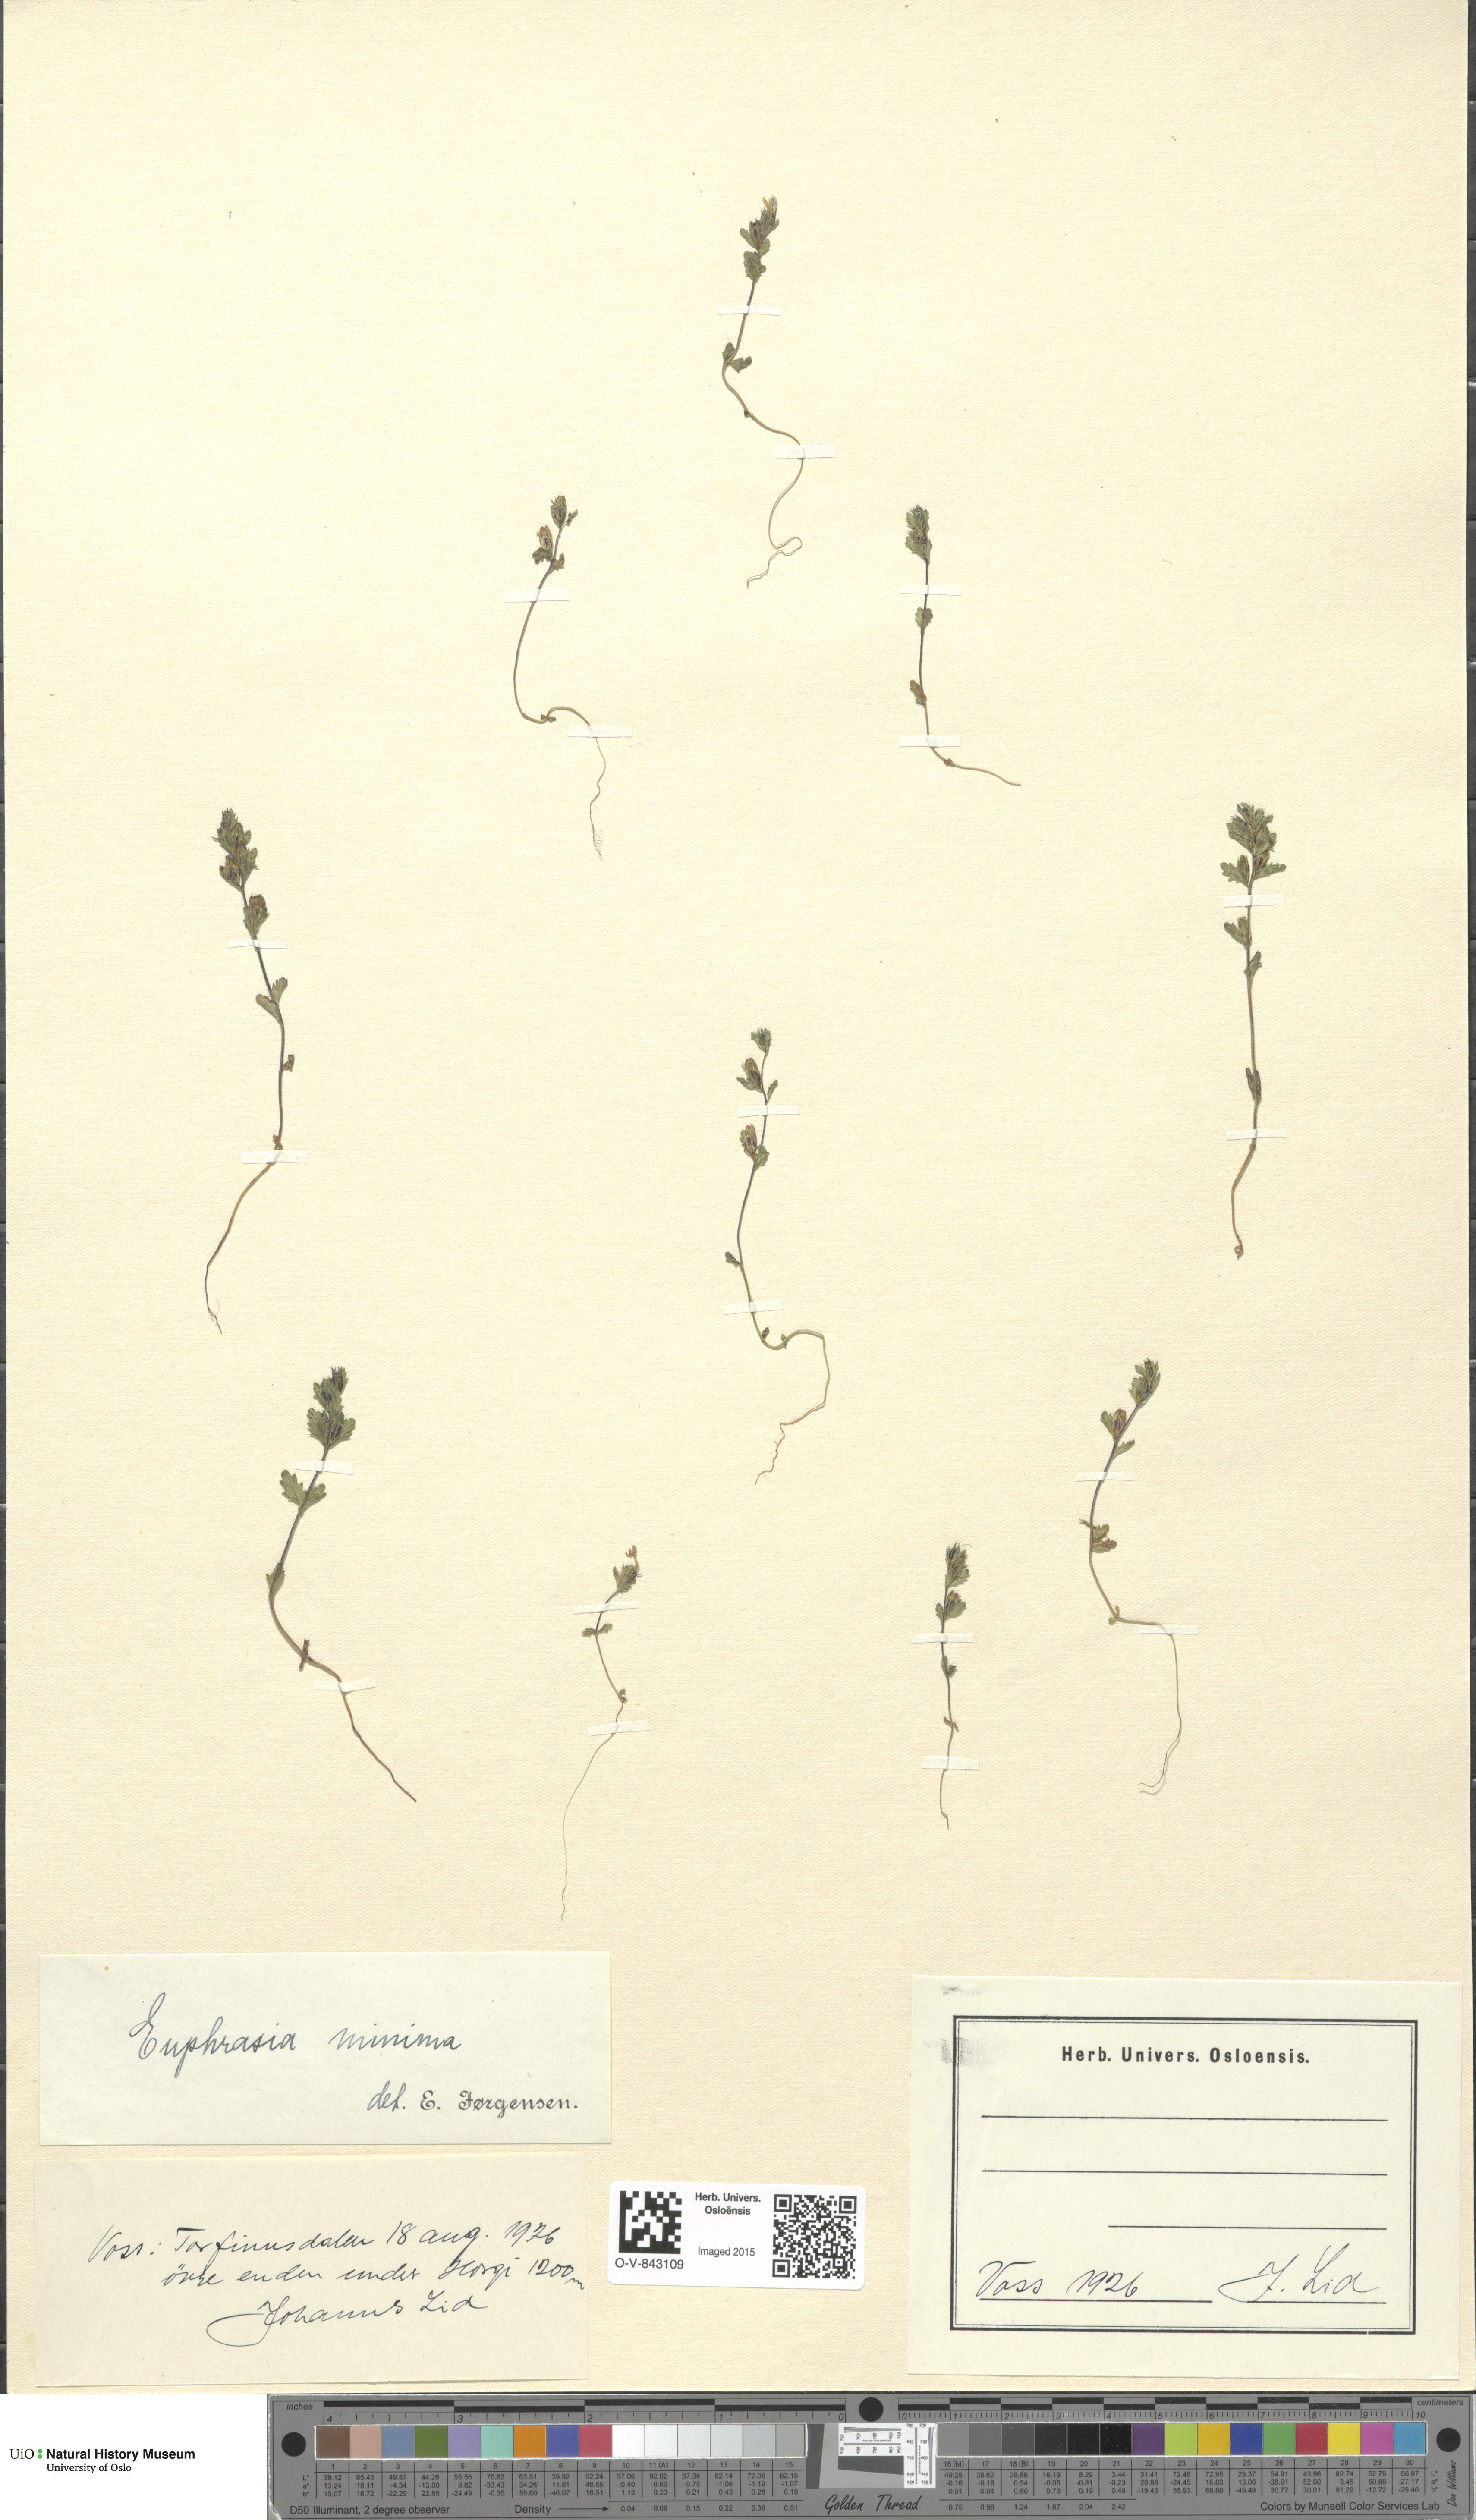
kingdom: Plantae
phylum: Tracheophyta
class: Magnoliopsida
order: Lamiales
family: Orobanchaceae
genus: Euphrasia
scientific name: Euphrasia wettsteinii
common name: Wettstein's eyebright
